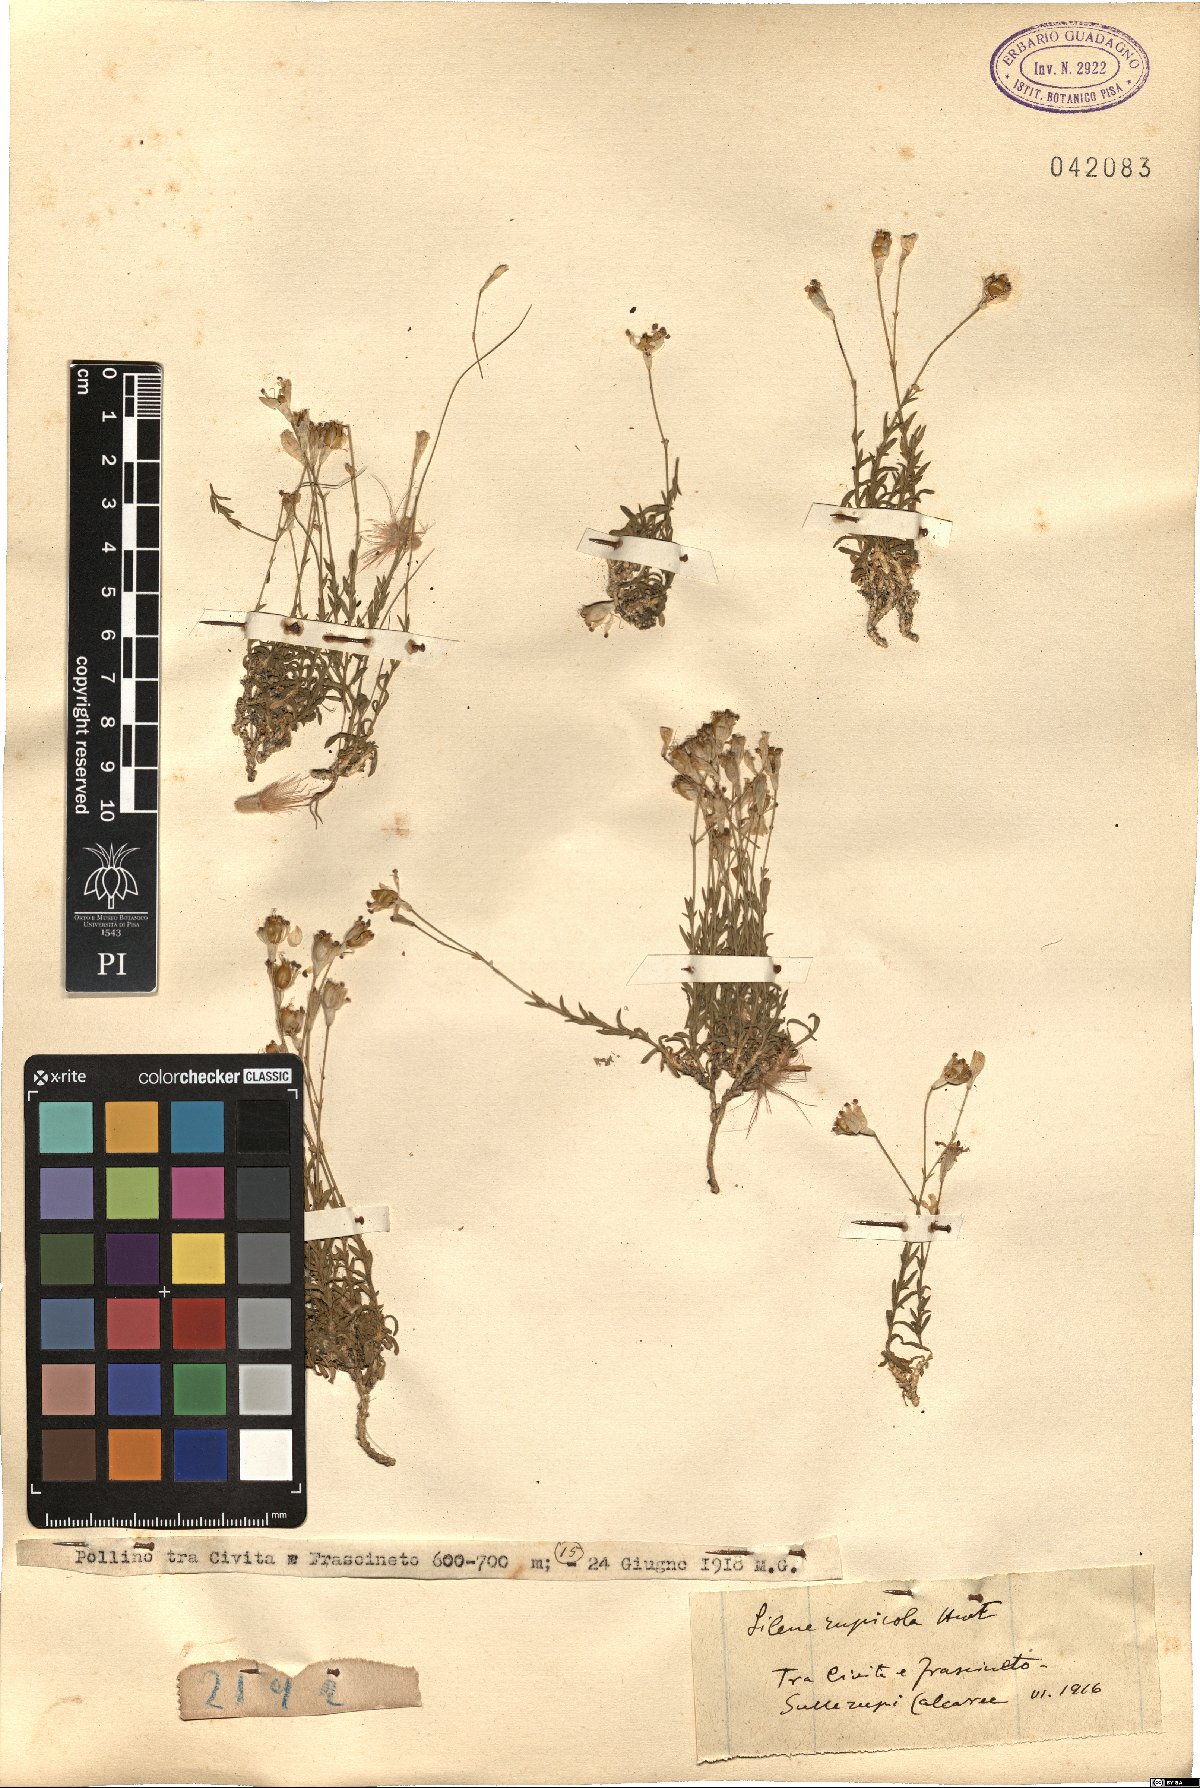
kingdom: Plantae
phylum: Tracheophyta
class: Magnoliopsida
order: Caryophyllales
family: Caryophyllaceae
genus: Silene
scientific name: Silene saxifraga
